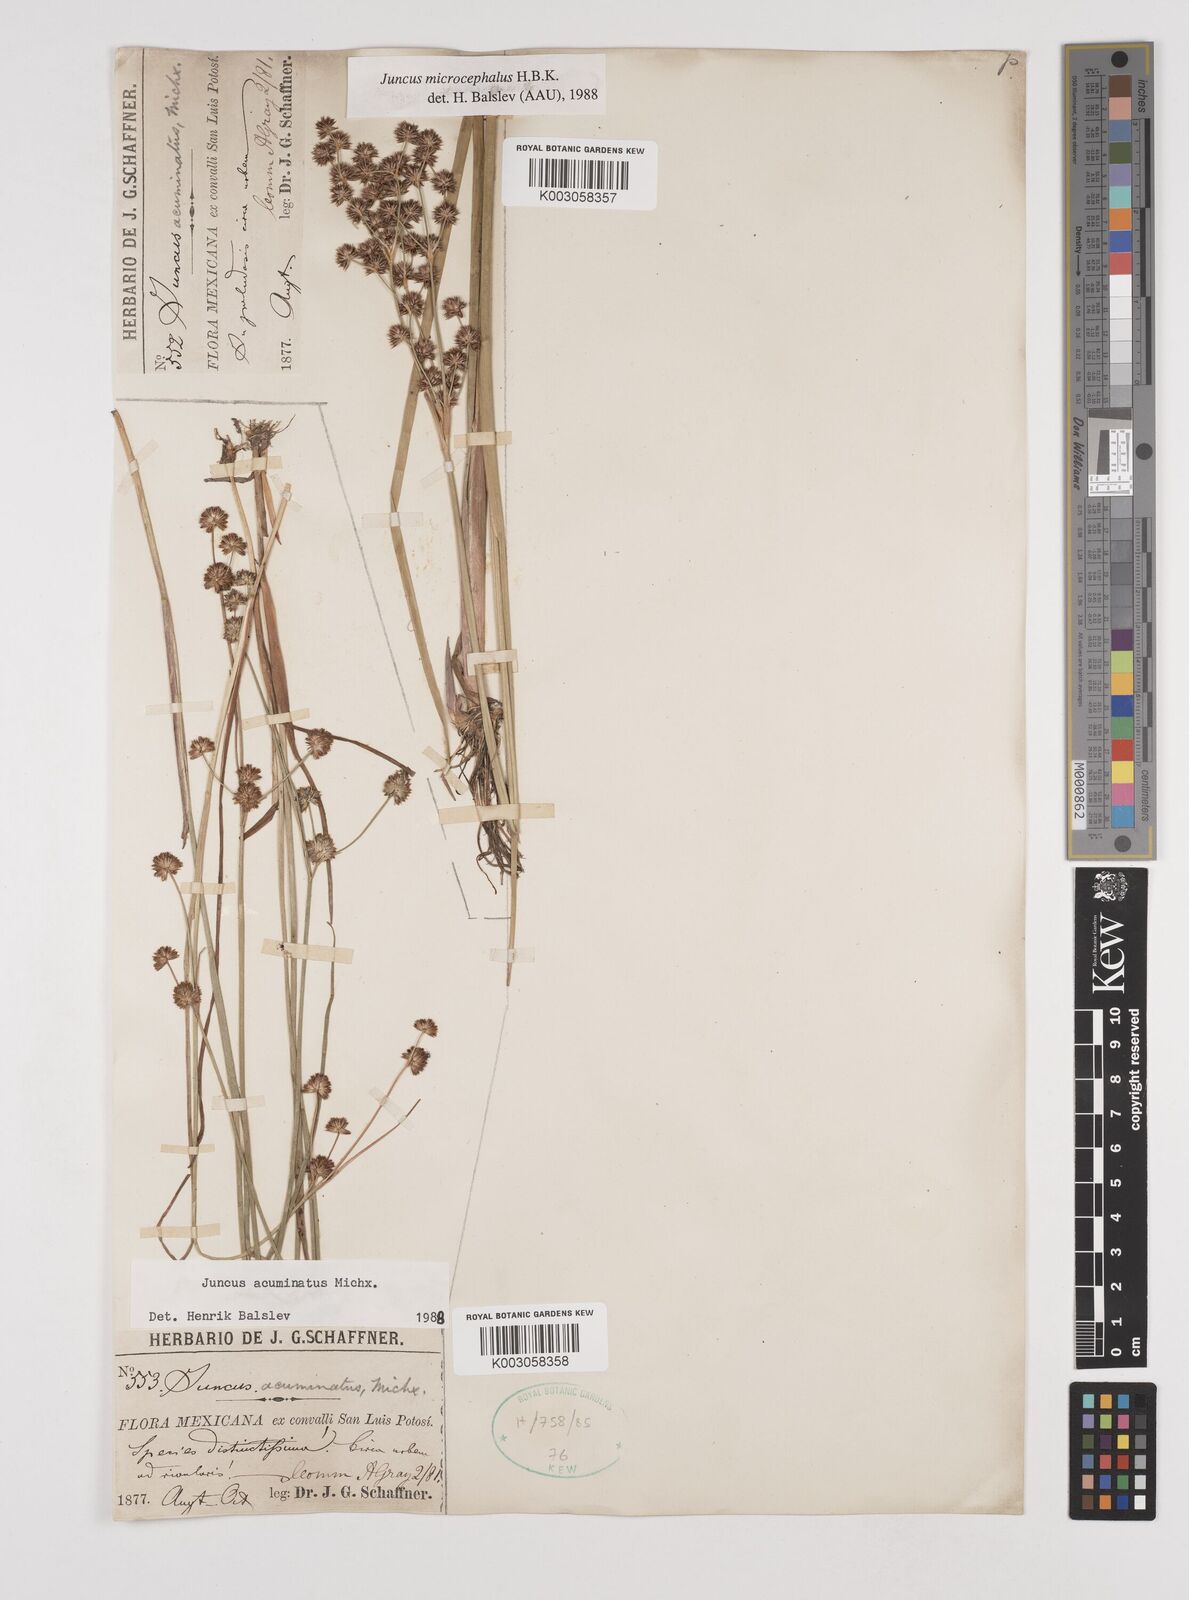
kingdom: Plantae
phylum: Tracheophyta
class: Liliopsida
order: Poales
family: Juncaceae
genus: Juncus
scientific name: Juncus acuminatus
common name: Knotty-leaved rush
